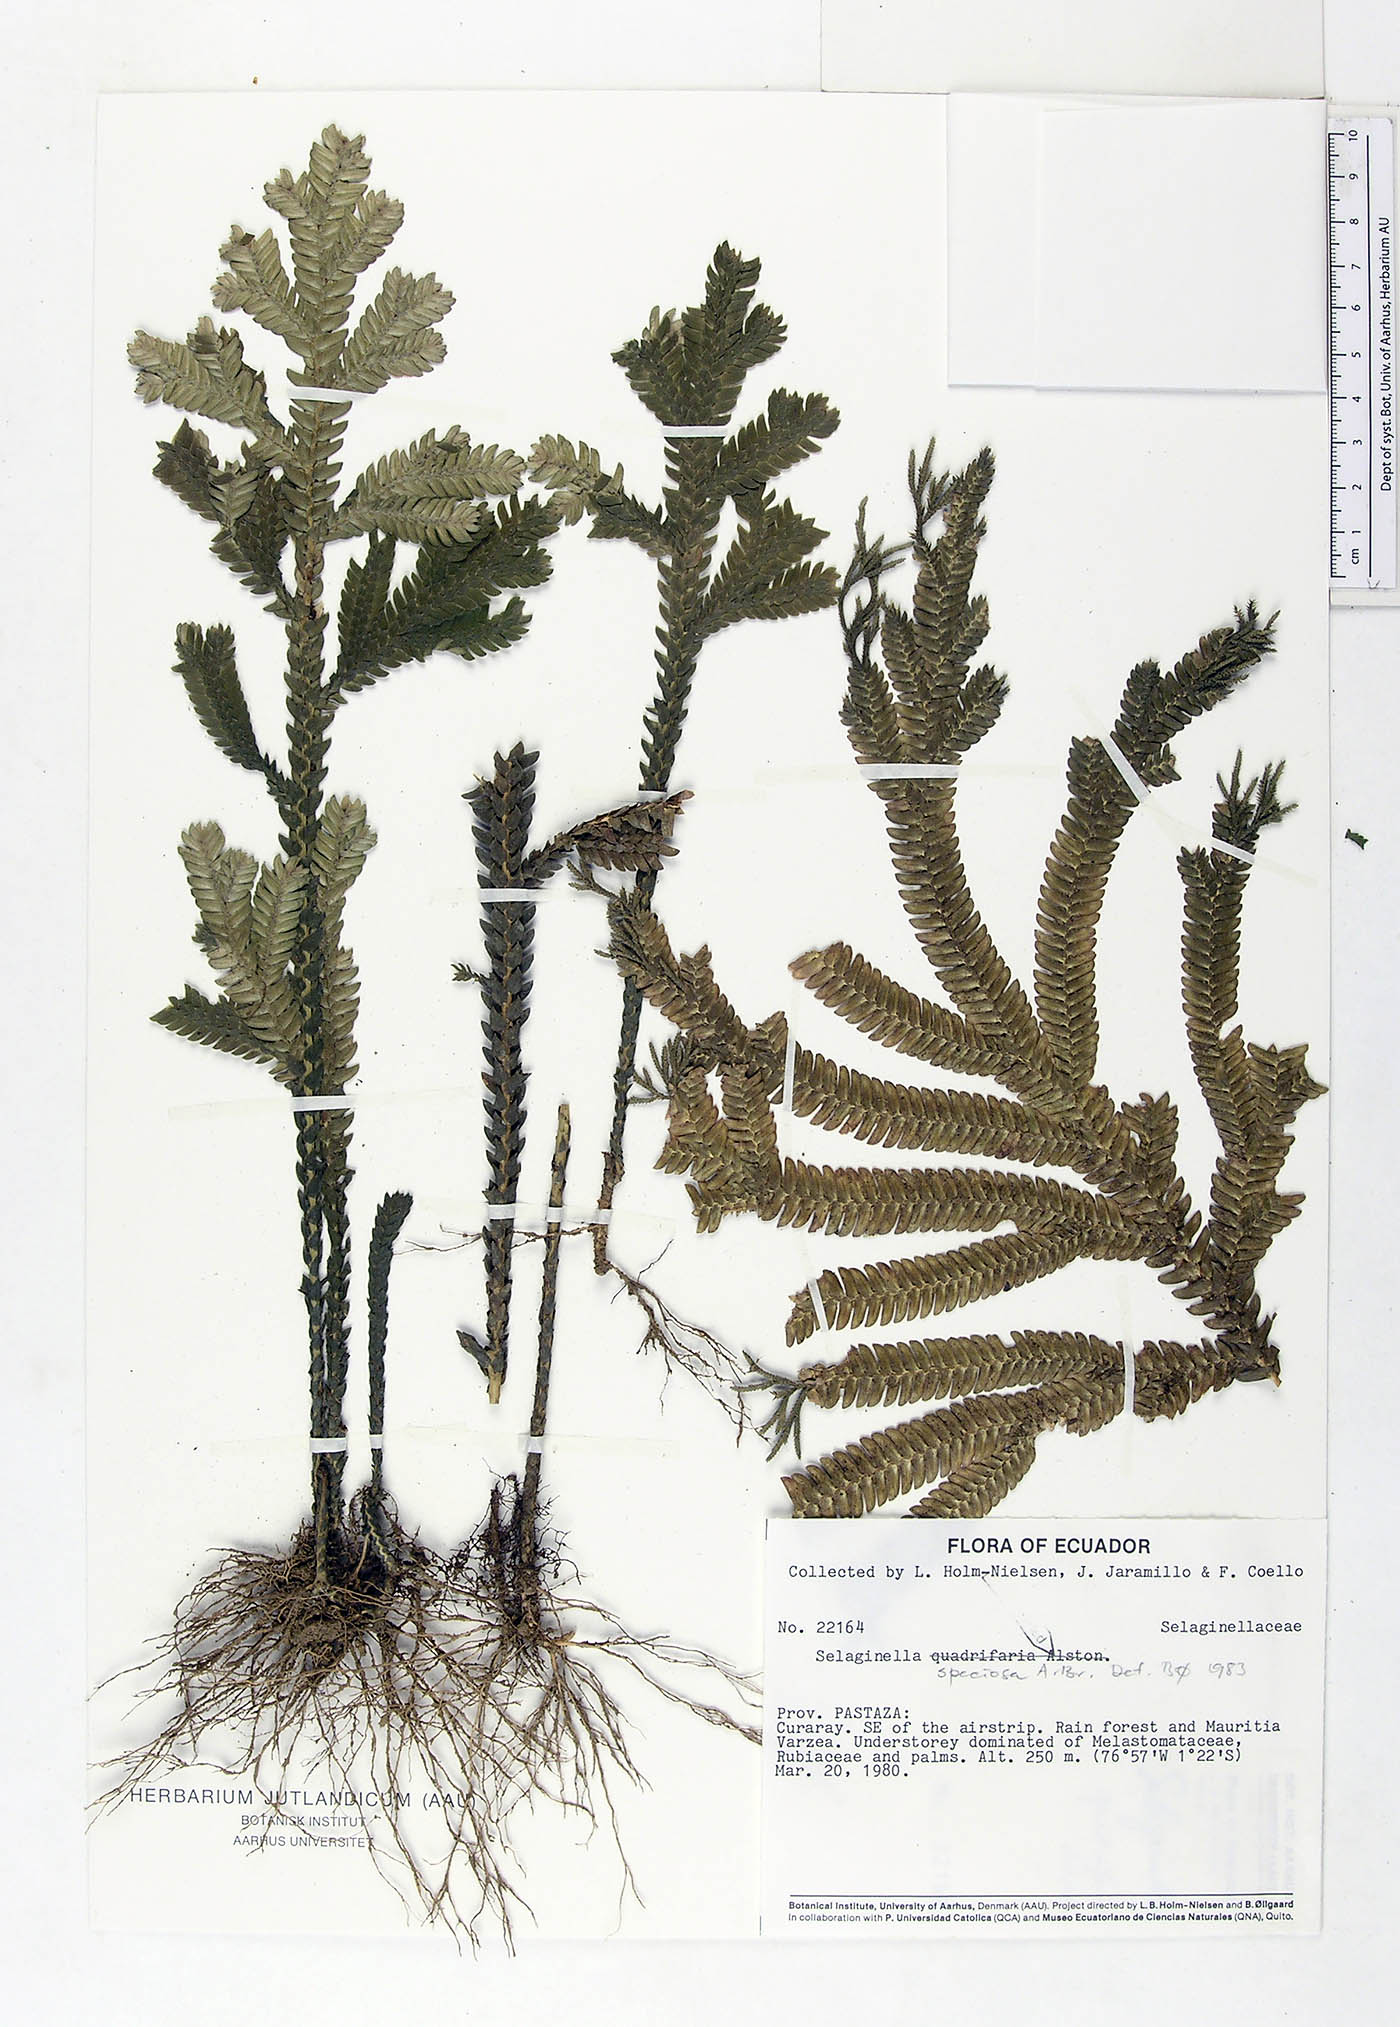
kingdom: Plantae
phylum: Tracheophyta
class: Lycopodiopsida
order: Selaginellales
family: Selaginellaceae
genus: Selaginella
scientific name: Selaginella speciosa
